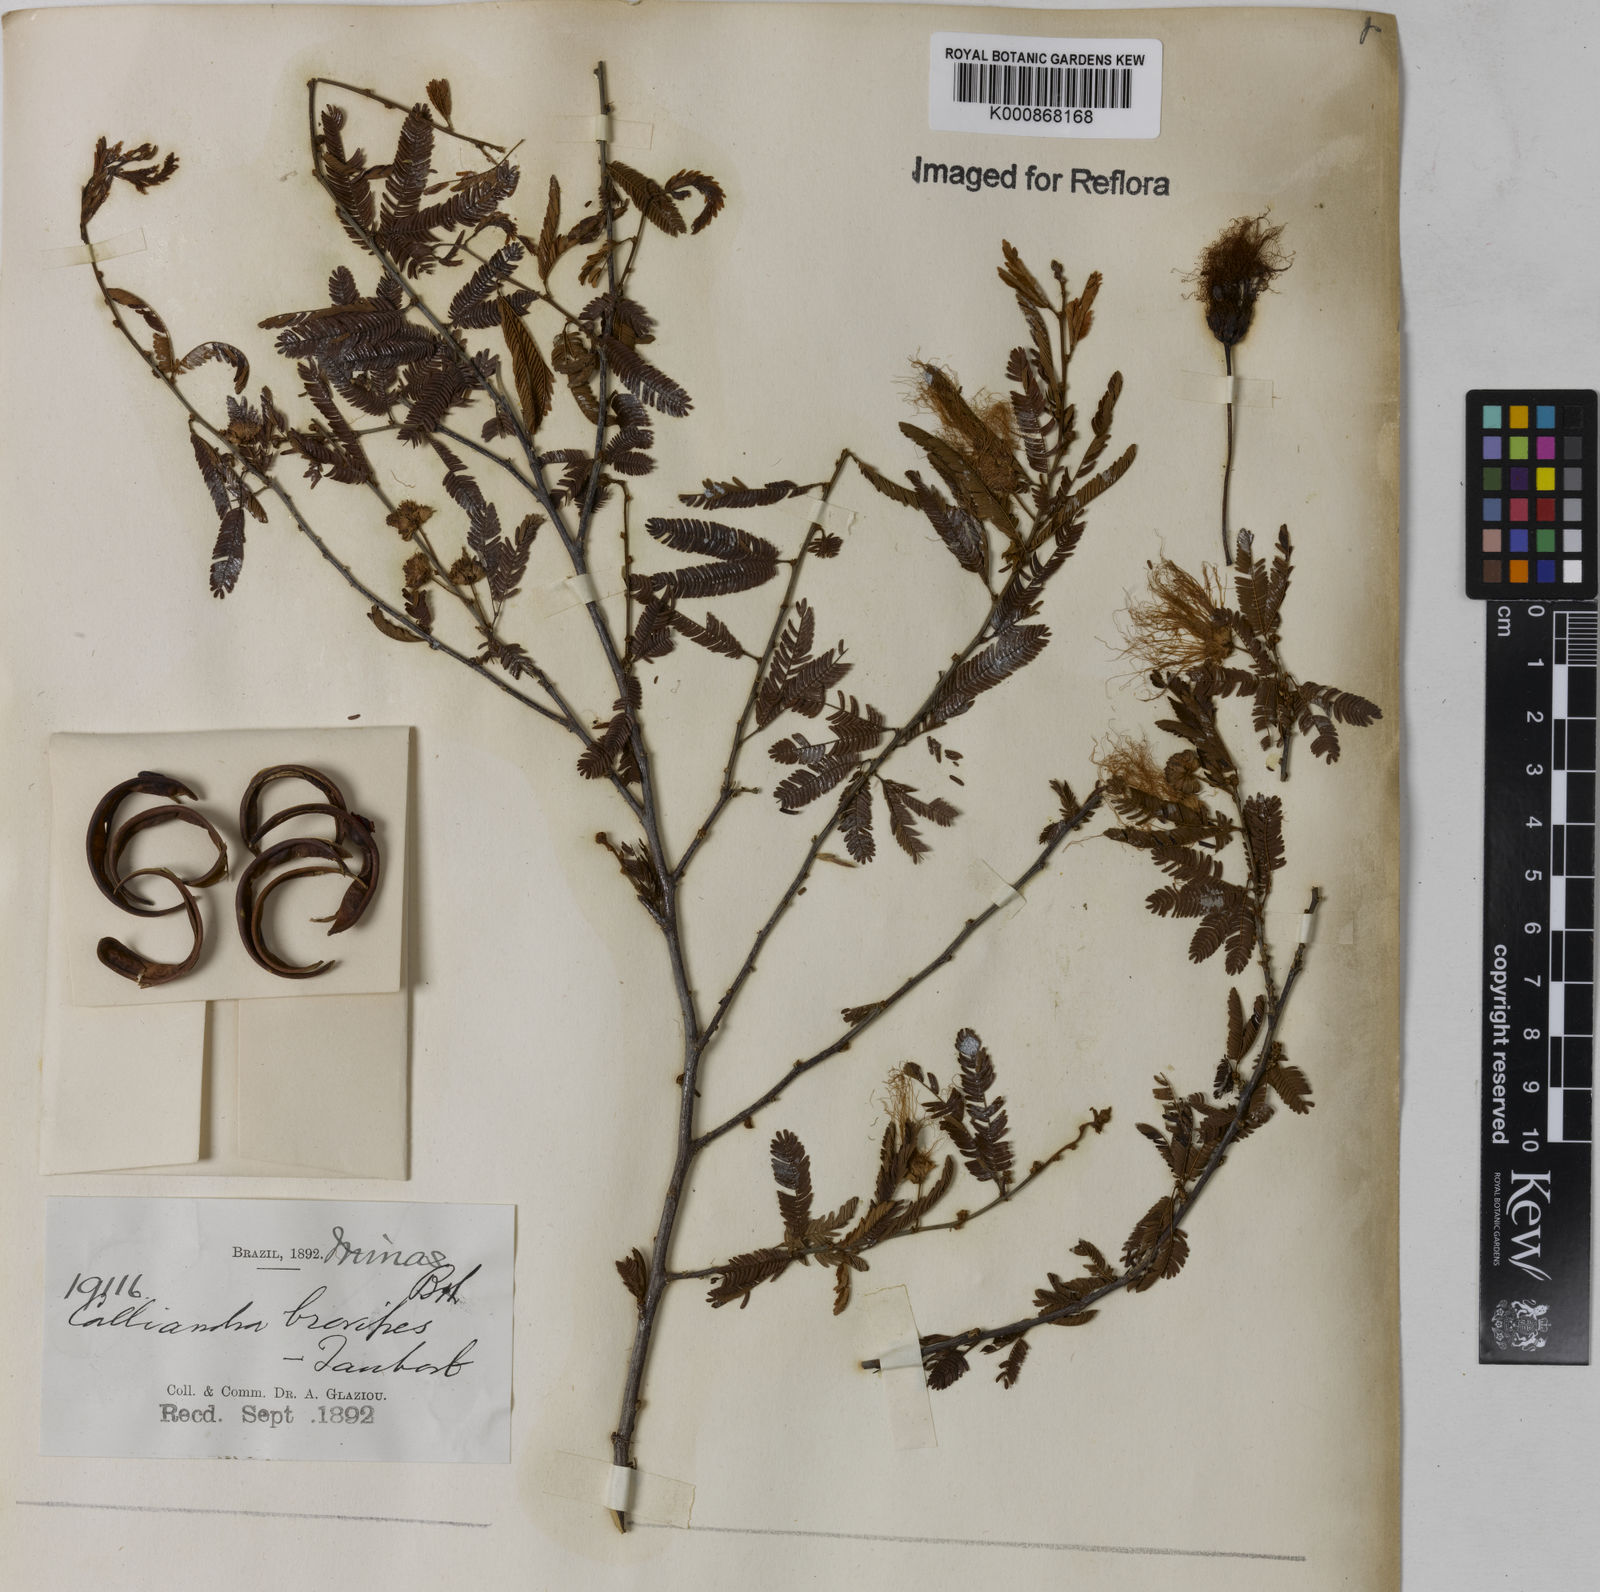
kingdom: Plantae
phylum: Tracheophyta
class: Magnoliopsida
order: Fabales
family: Fabaceae
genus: Calliandra
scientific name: Calliandra selloi
